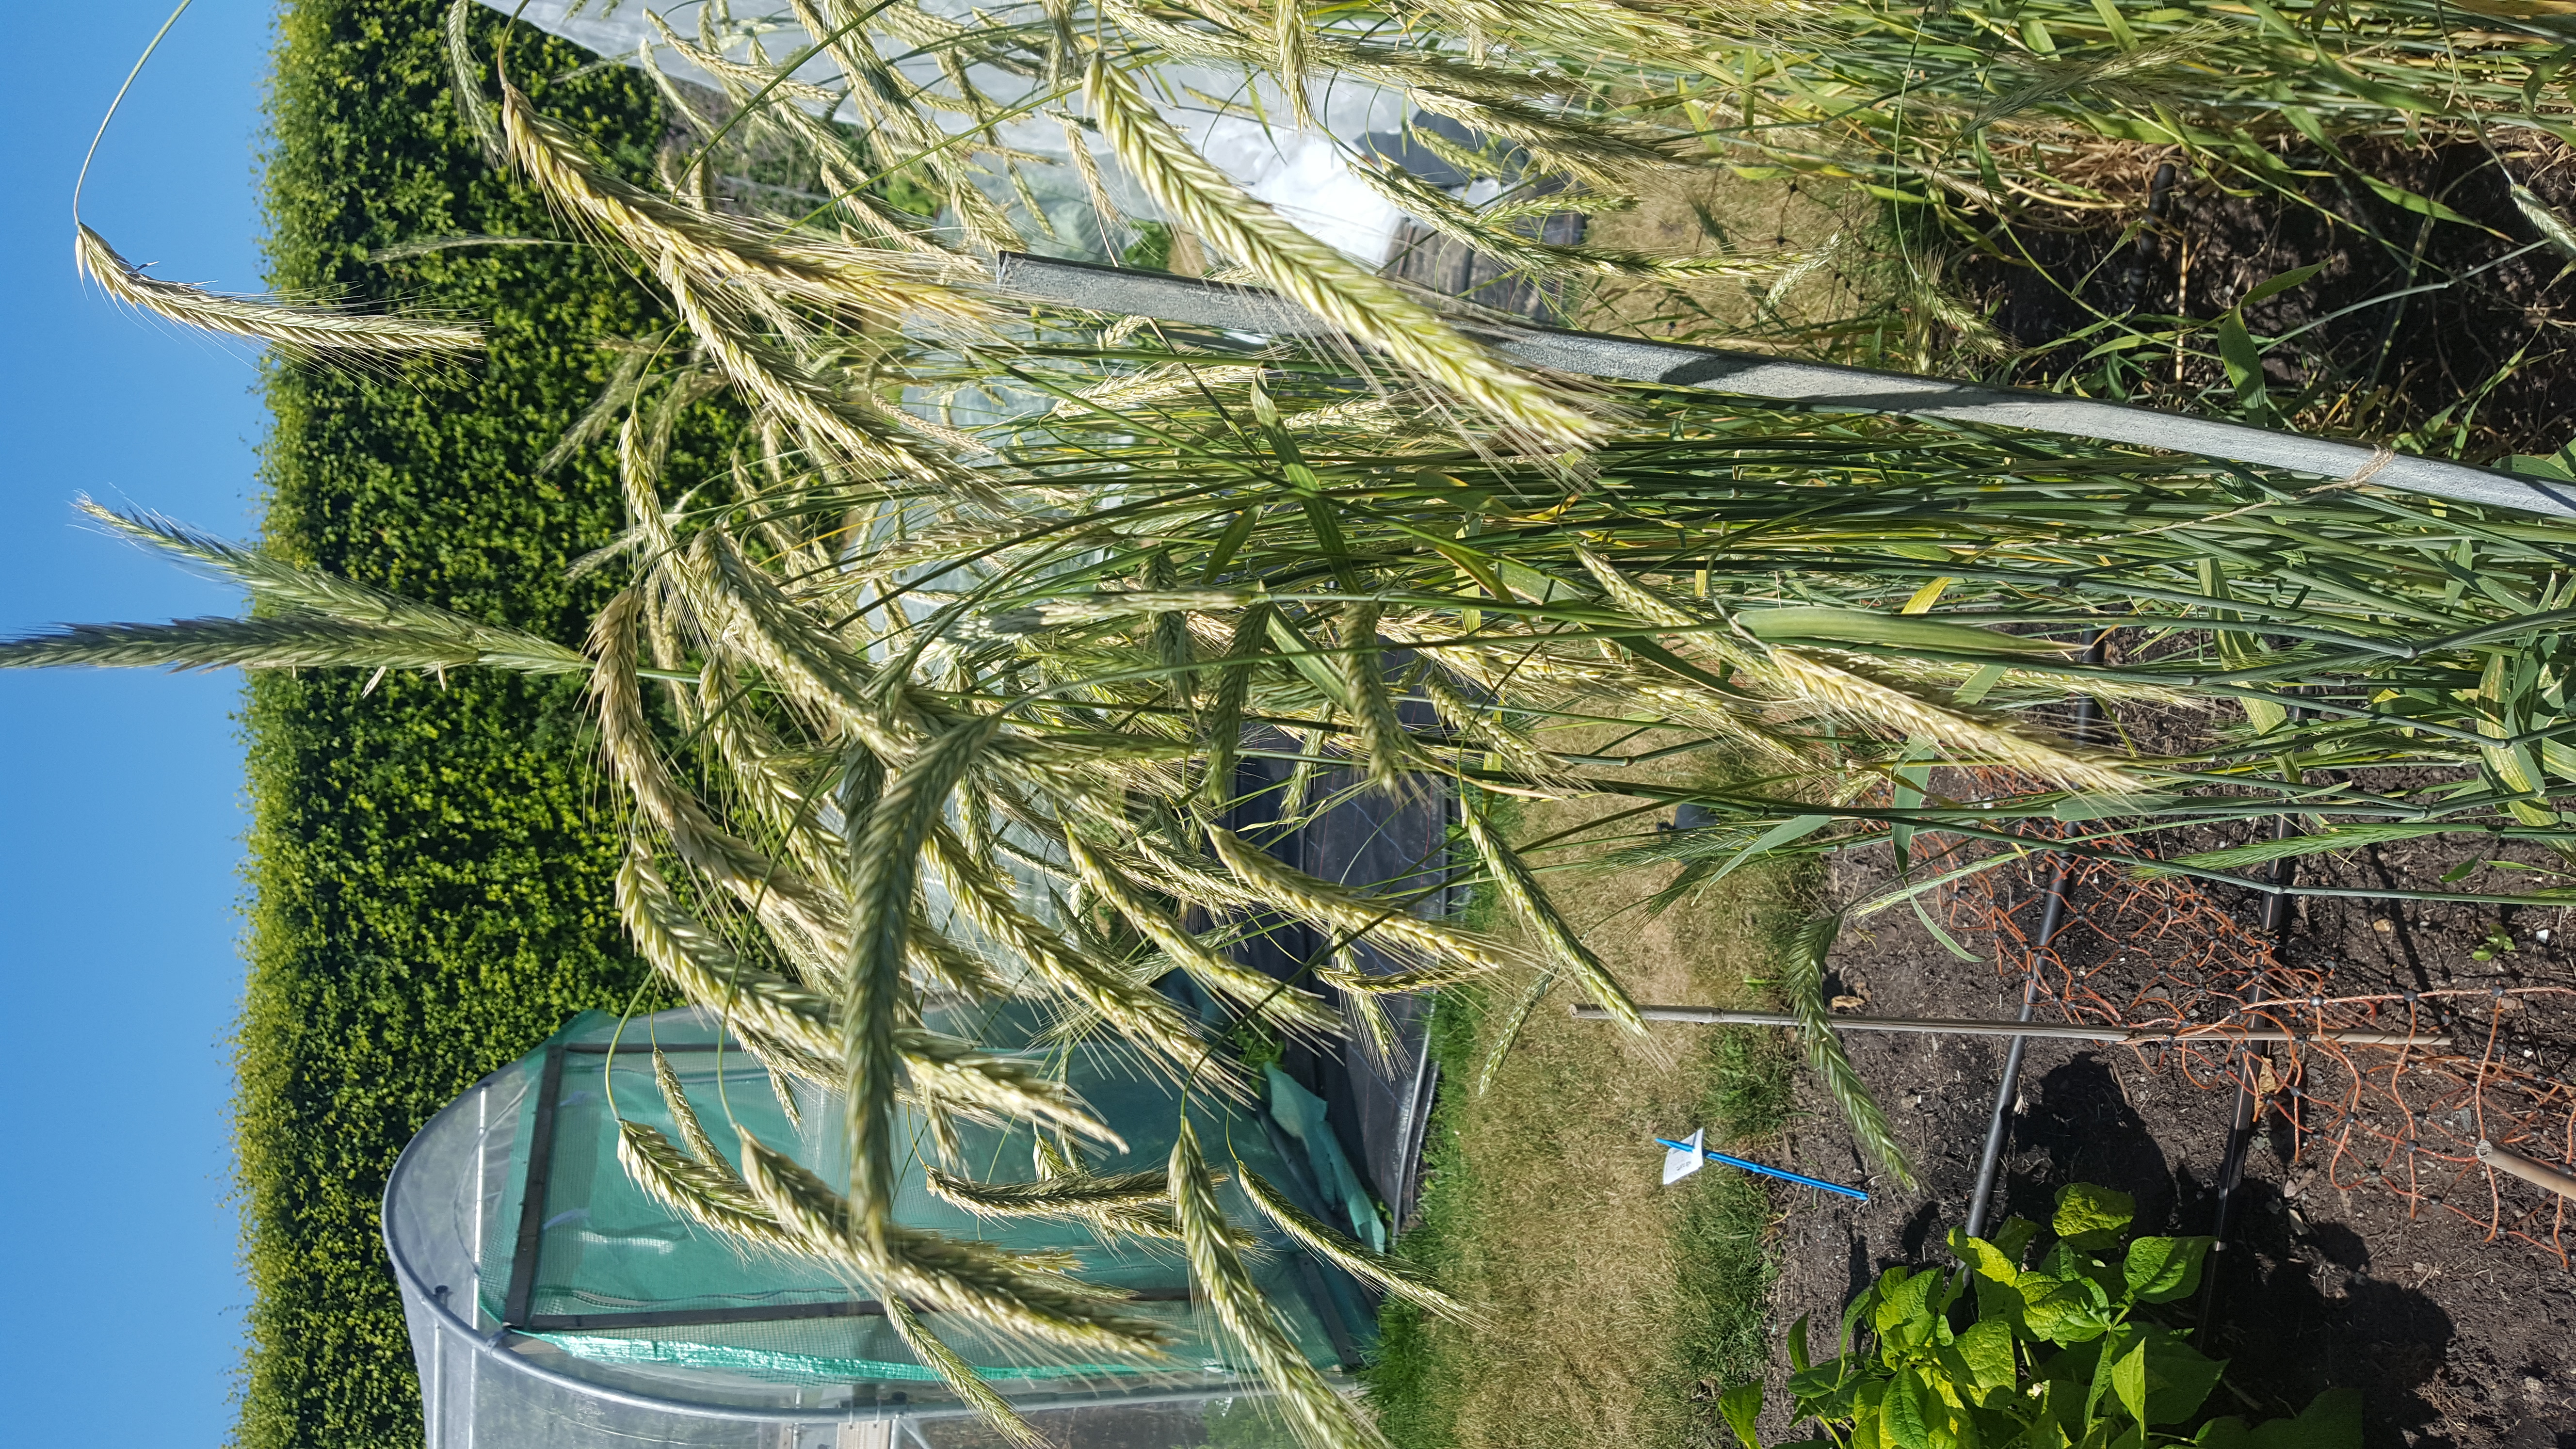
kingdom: Plantae
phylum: Tracheophyta
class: Liliopsida
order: Poales
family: Poaceae
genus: Secale
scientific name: Secale cereale
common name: Rye
